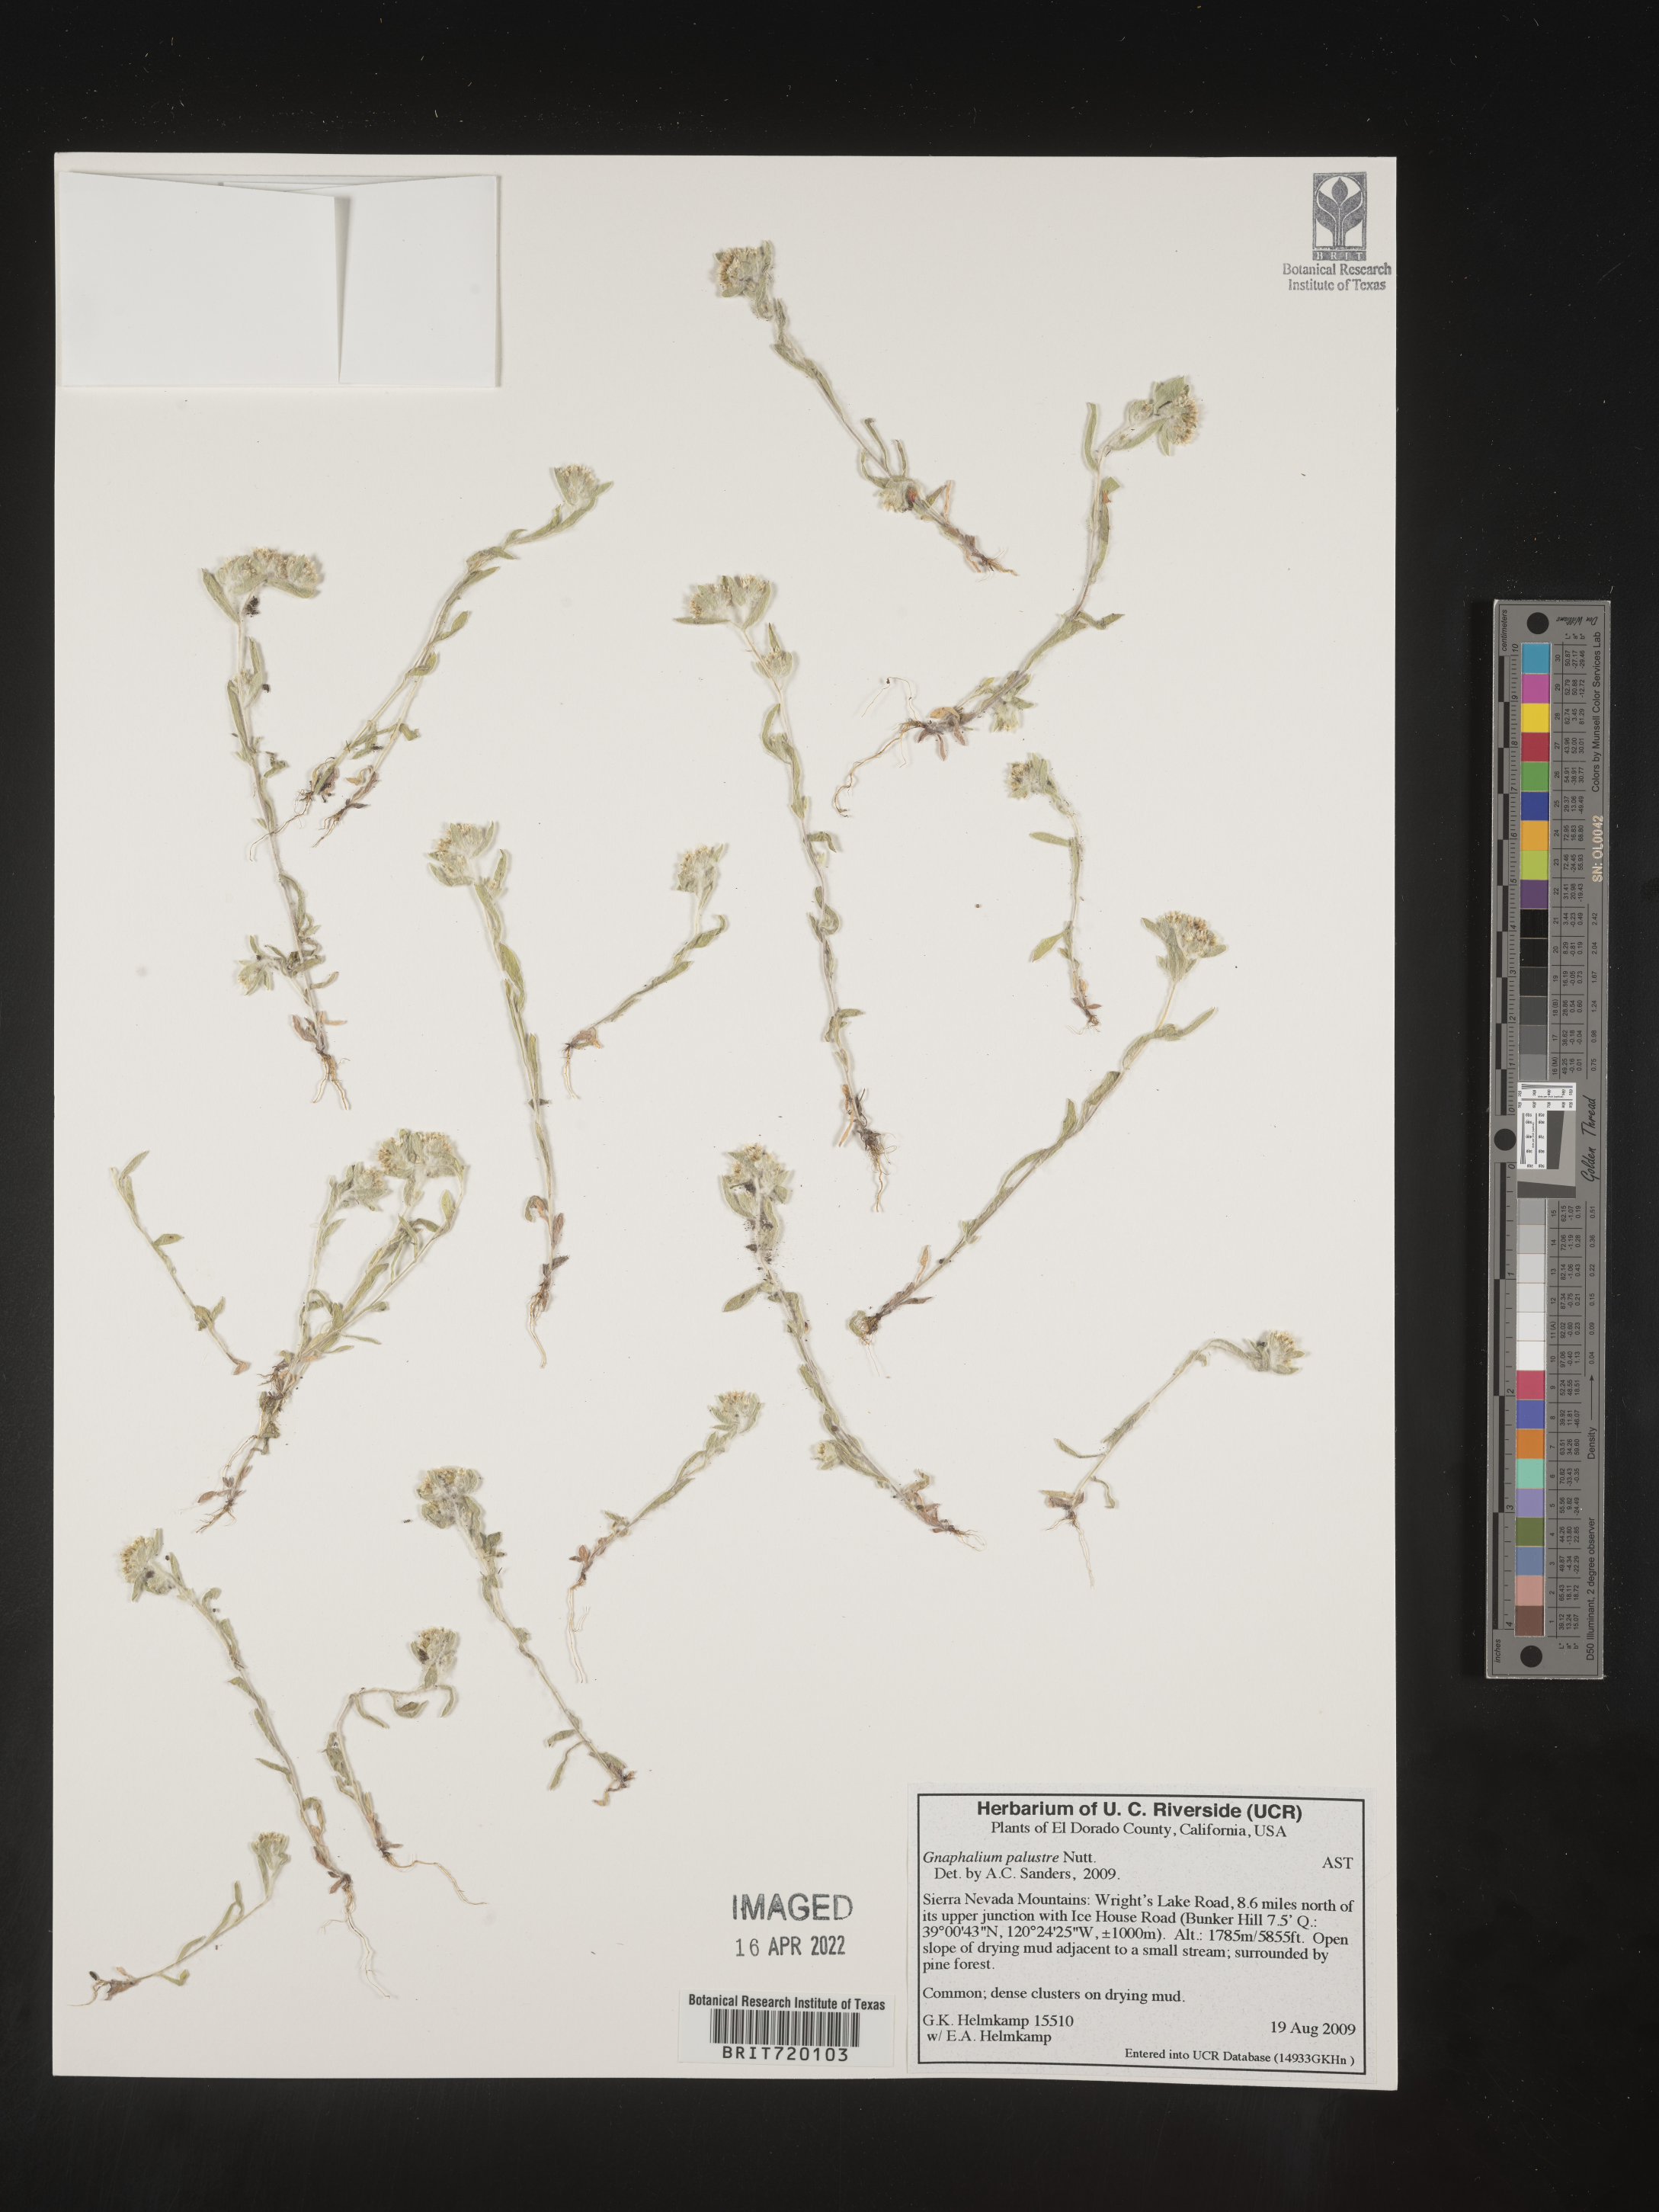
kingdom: Plantae
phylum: Tracheophyta
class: Magnoliopsida
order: Asterales
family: Asteraceae
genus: Gnaphalium
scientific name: Gnaphalium palustre
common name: Western marsh cudweed
